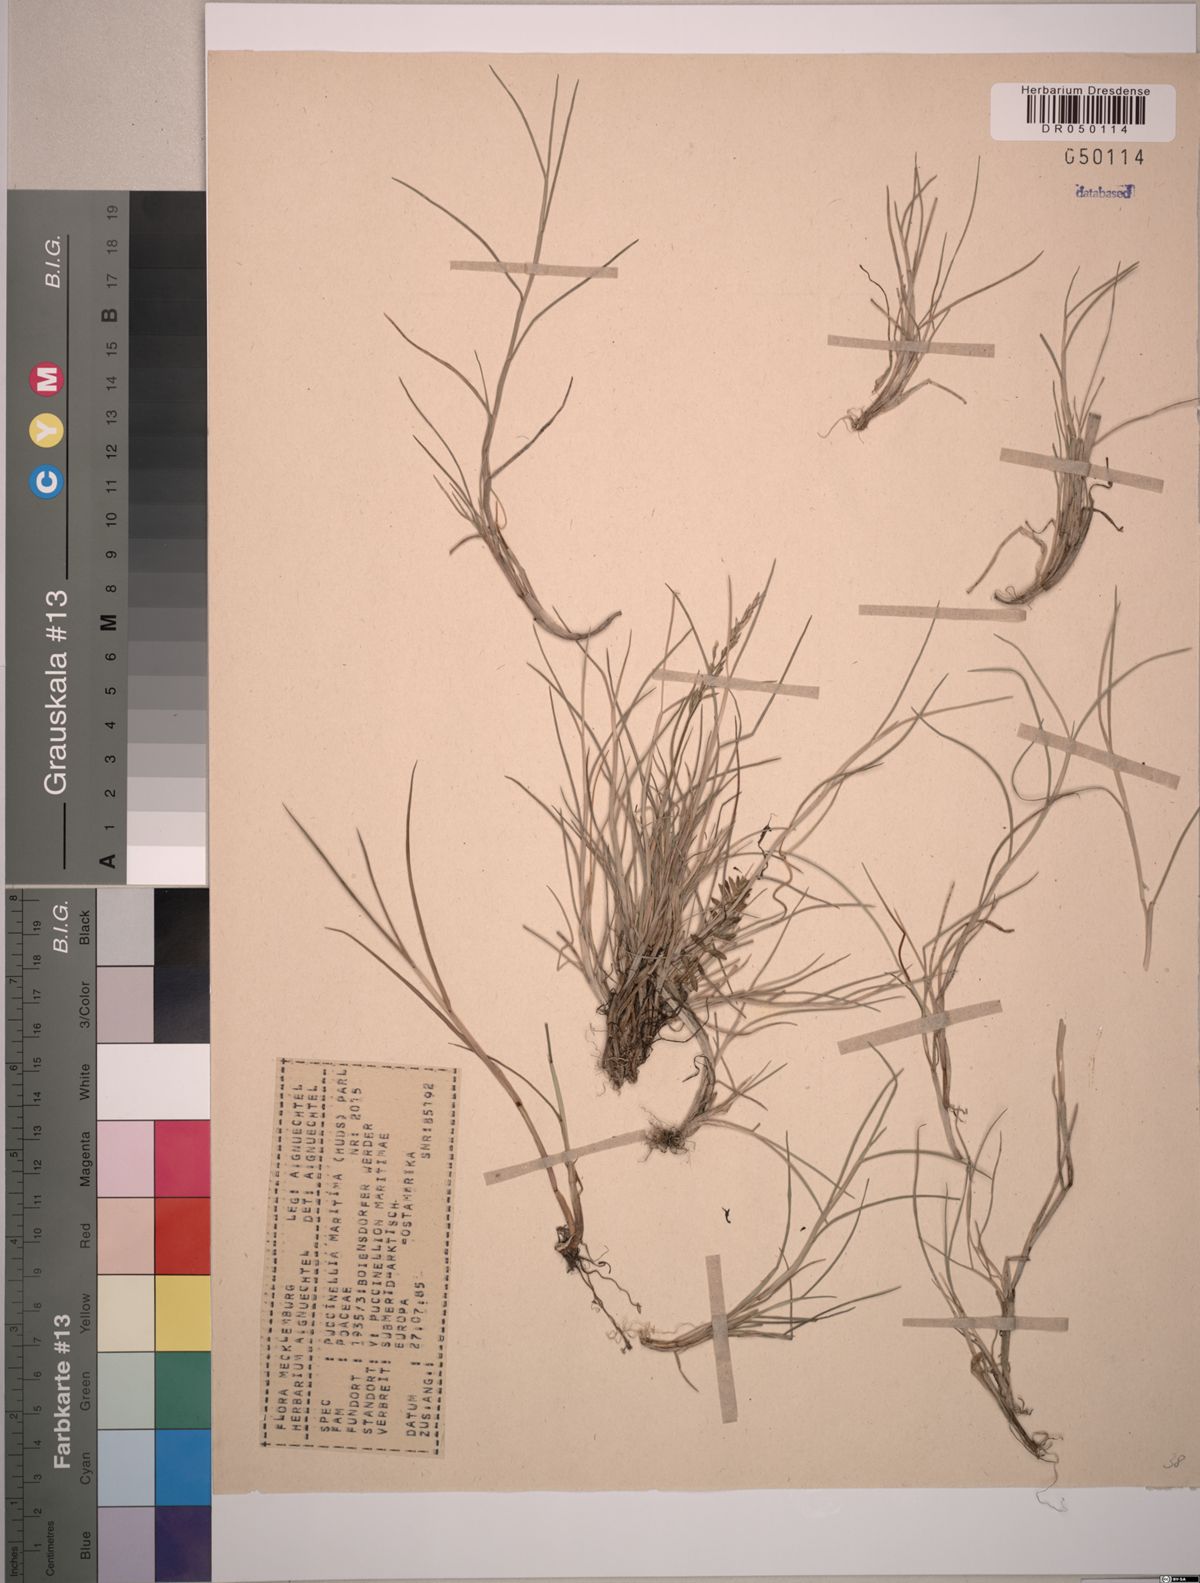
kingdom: Plantae
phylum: Tracheophyta
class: Liliopsida
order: Poales
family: Poaceae
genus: Puccinellia
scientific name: Puccinellia maritima
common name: Common saltmarsh grass
